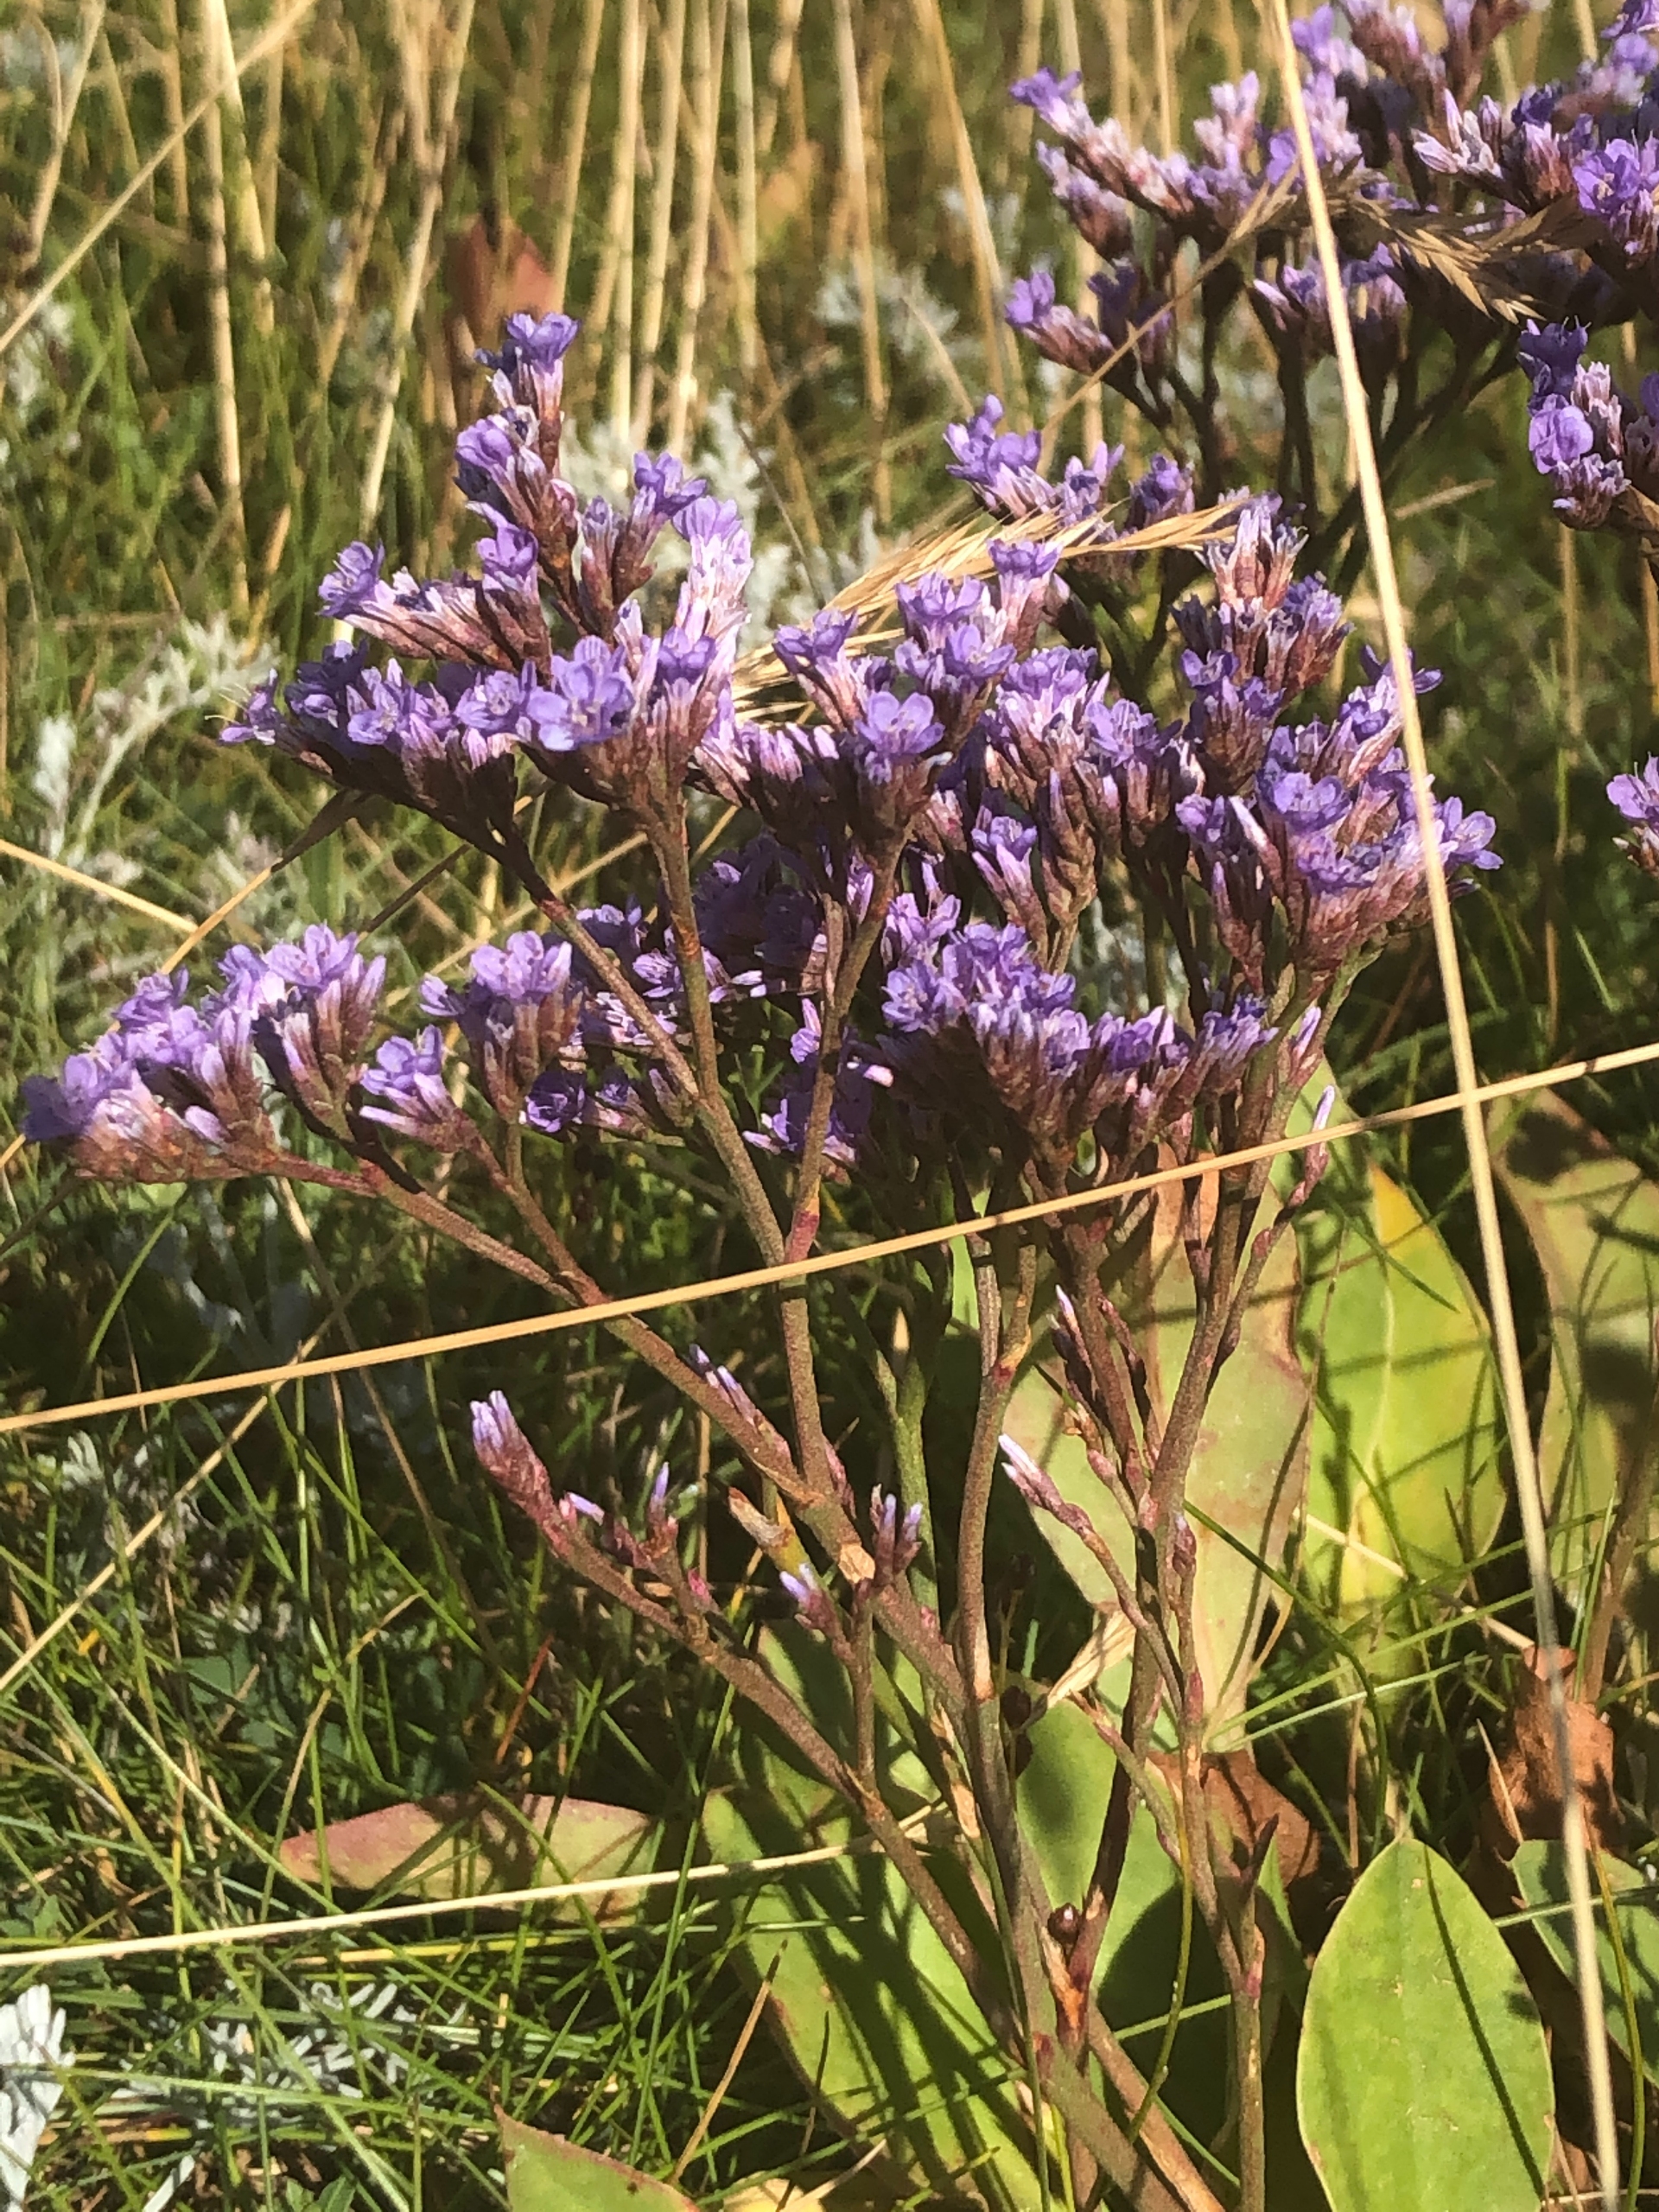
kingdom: Plantae
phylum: Tracheophyta
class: Magnoliopsida
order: Caryophyllales
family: Plumbaginaceae
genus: Limonium
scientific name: Limonium vulgare
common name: Tætblomstret hindebæger
